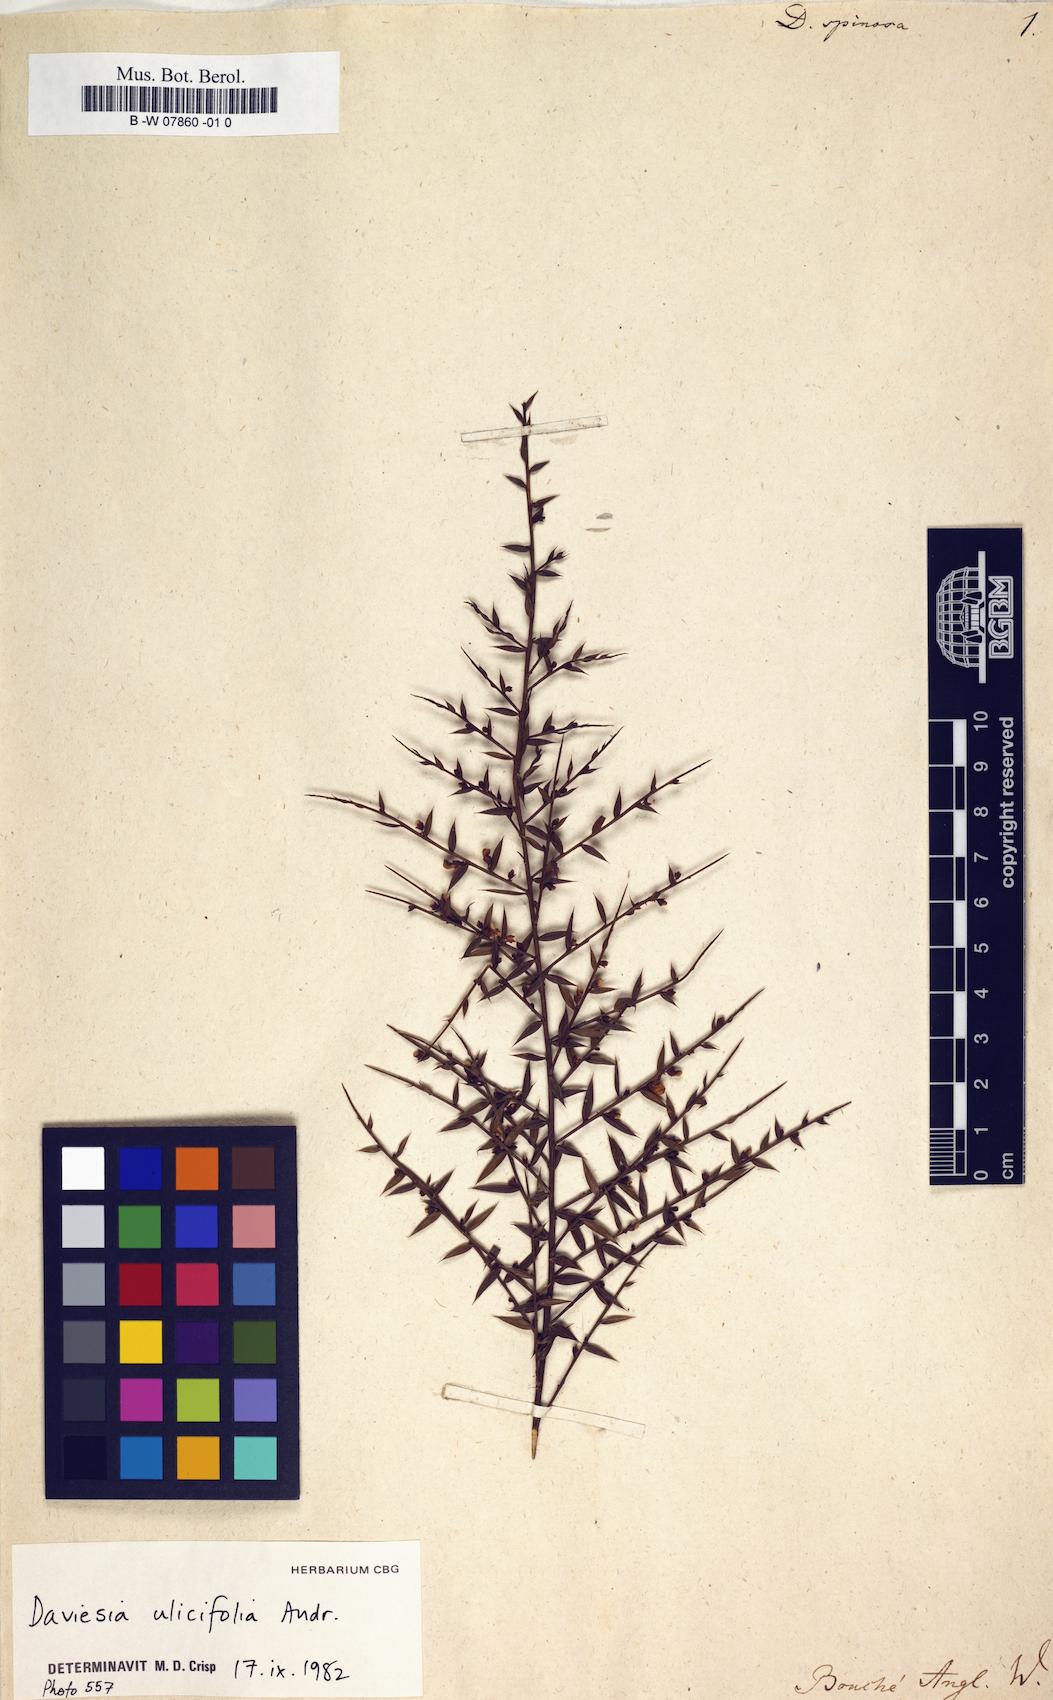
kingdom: Plantae
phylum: Tracheophyta
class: Magnoliopsida
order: Fabales
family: Fabaceae
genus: Daviesia
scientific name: Daviesia
